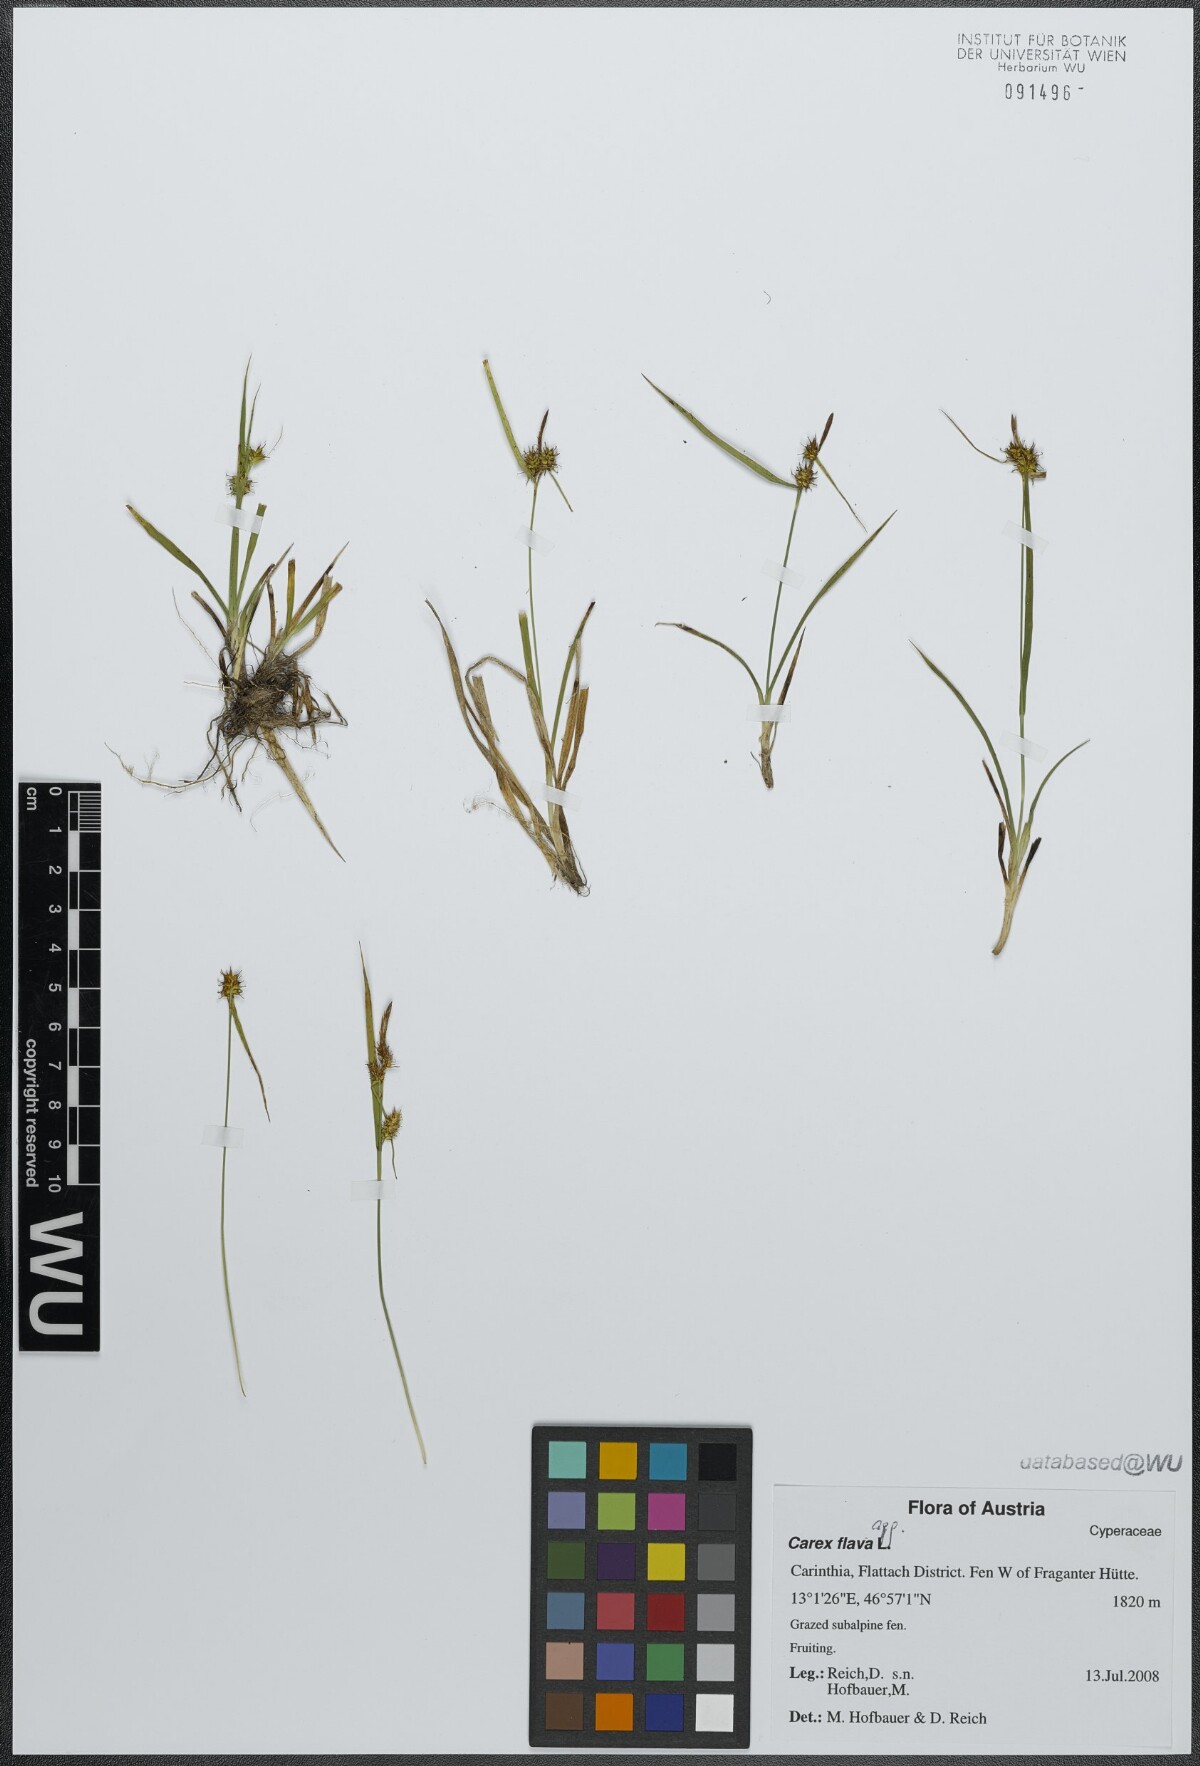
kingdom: Plantae
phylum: Tracheophyta
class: Liliopsida
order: Poales
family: Cyperaceae
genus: Carex
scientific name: Carex flava
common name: Large yellow-sedge
